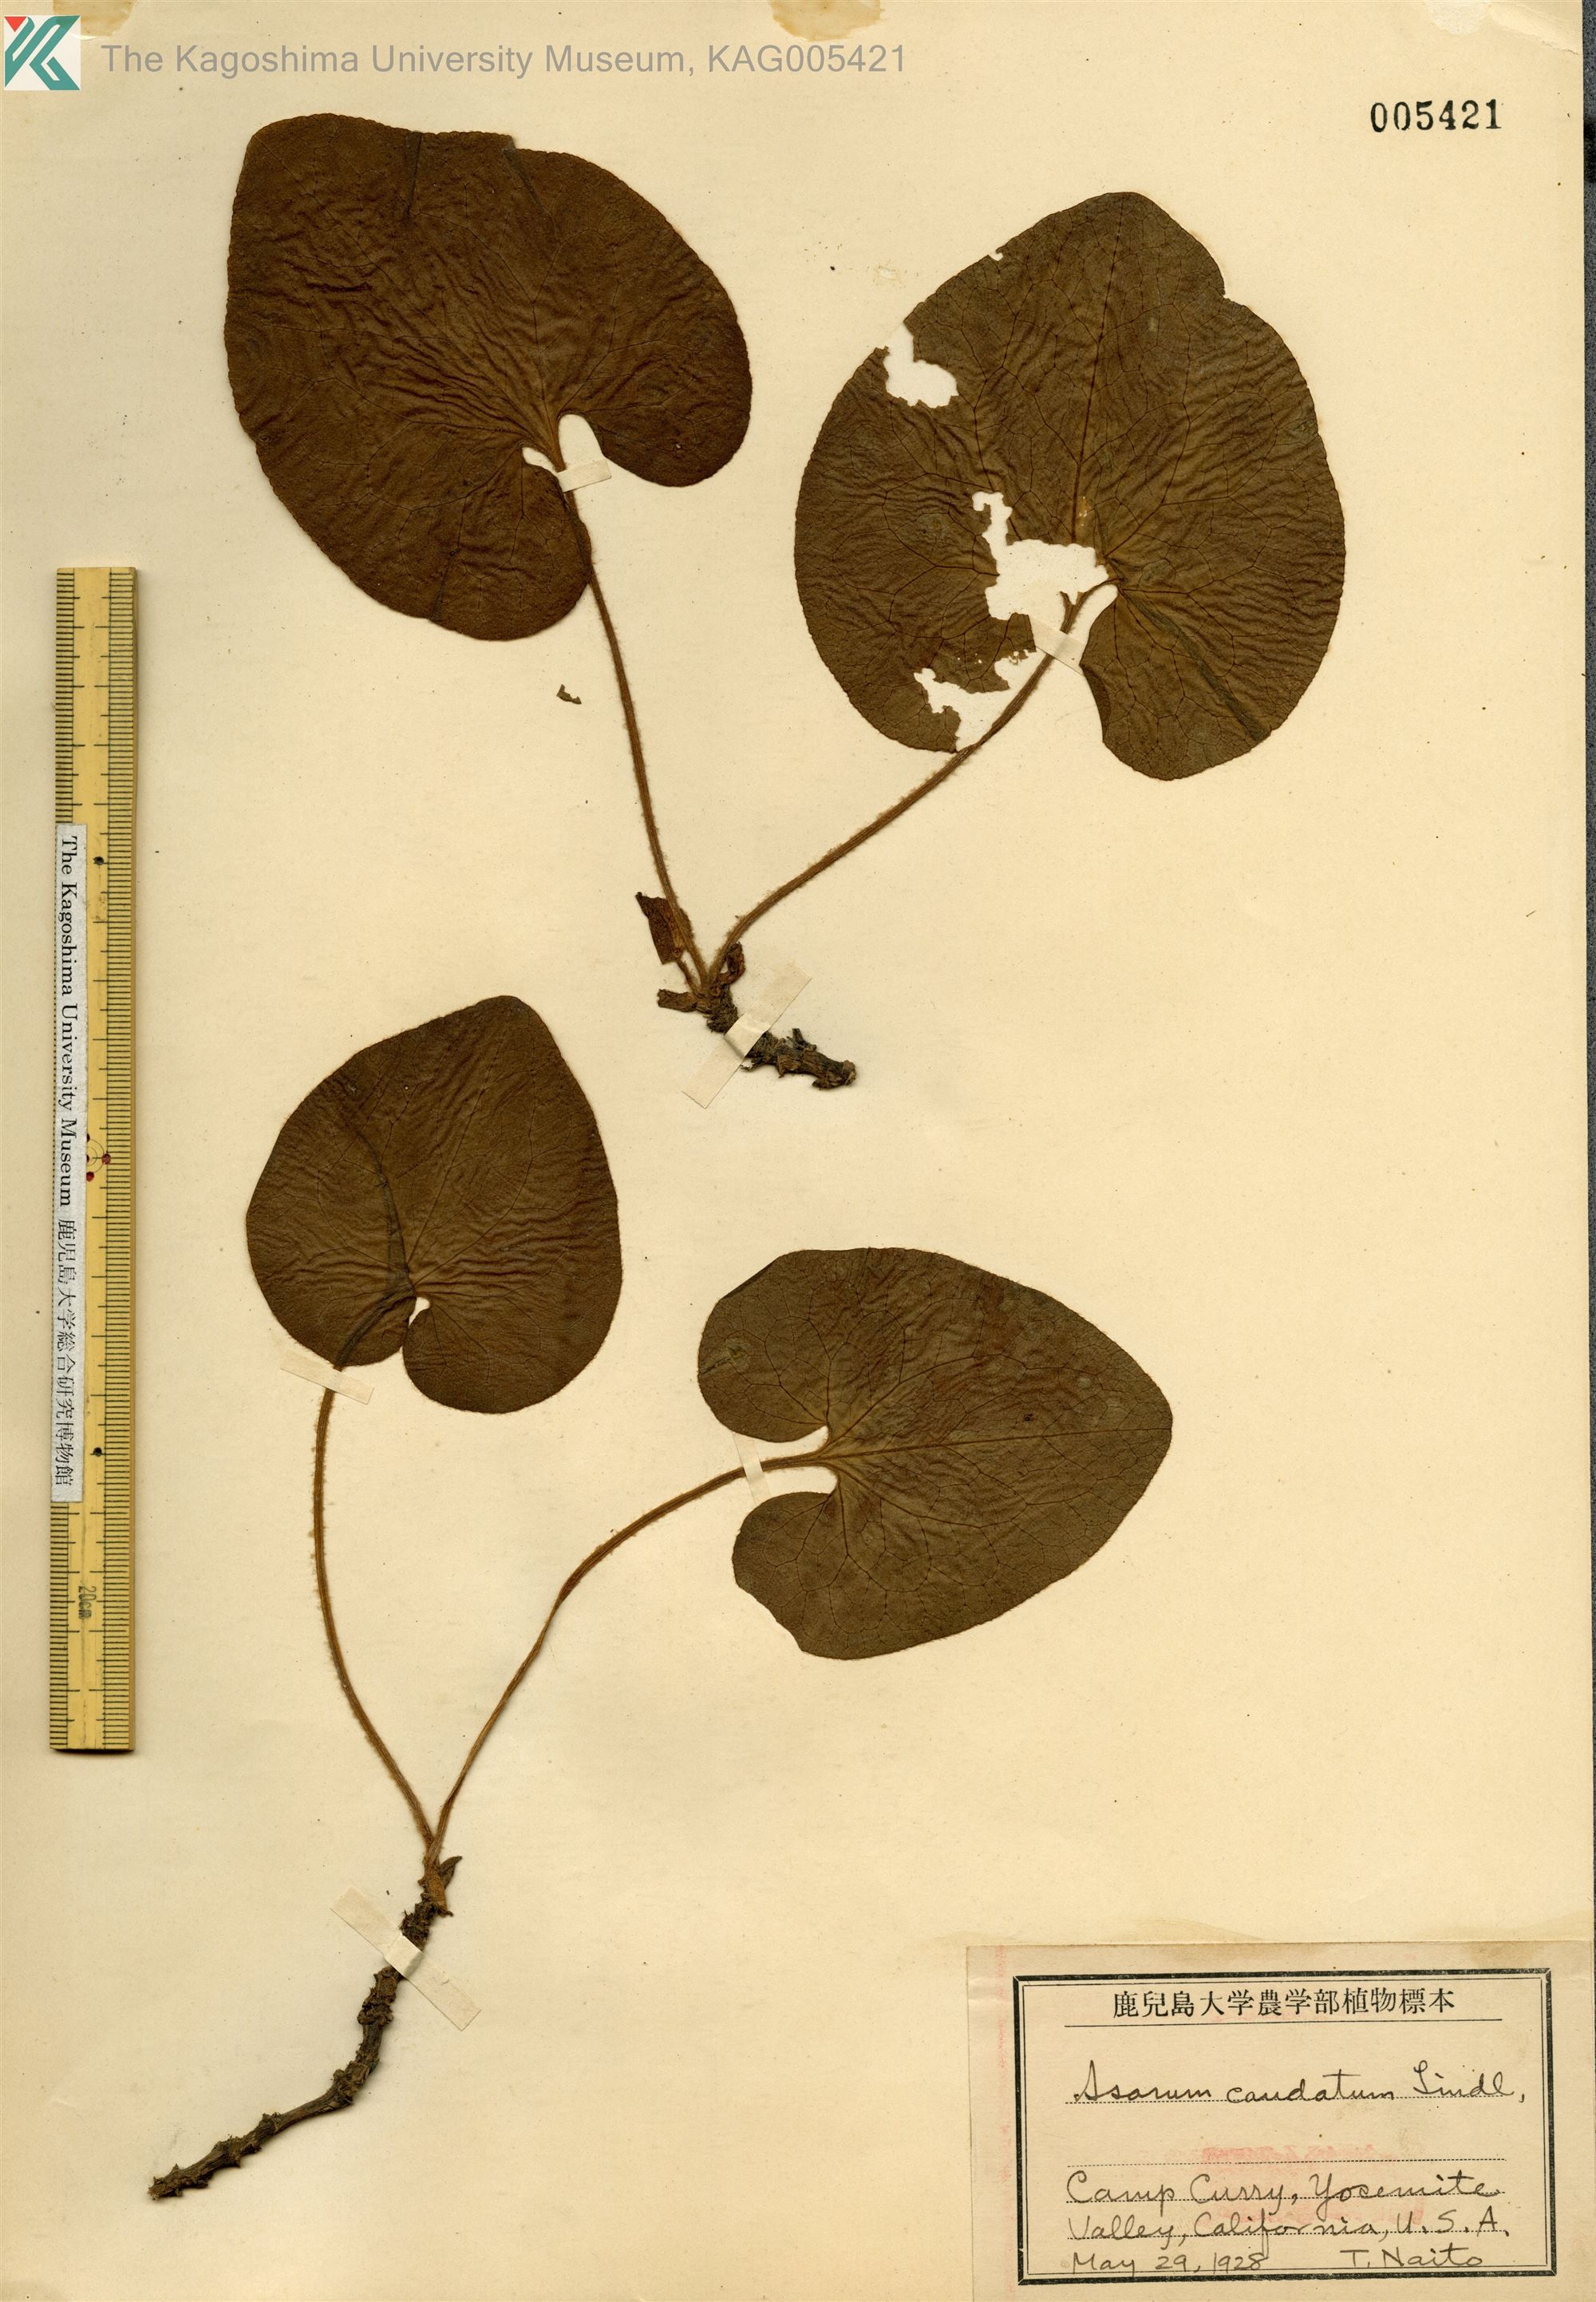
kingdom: Plantae
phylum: Tracheophyta
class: Magnoliopsida
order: Piperales
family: Aristolochiaceae
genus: Asarum
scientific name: Asarum caudatum
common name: Wild ginger
